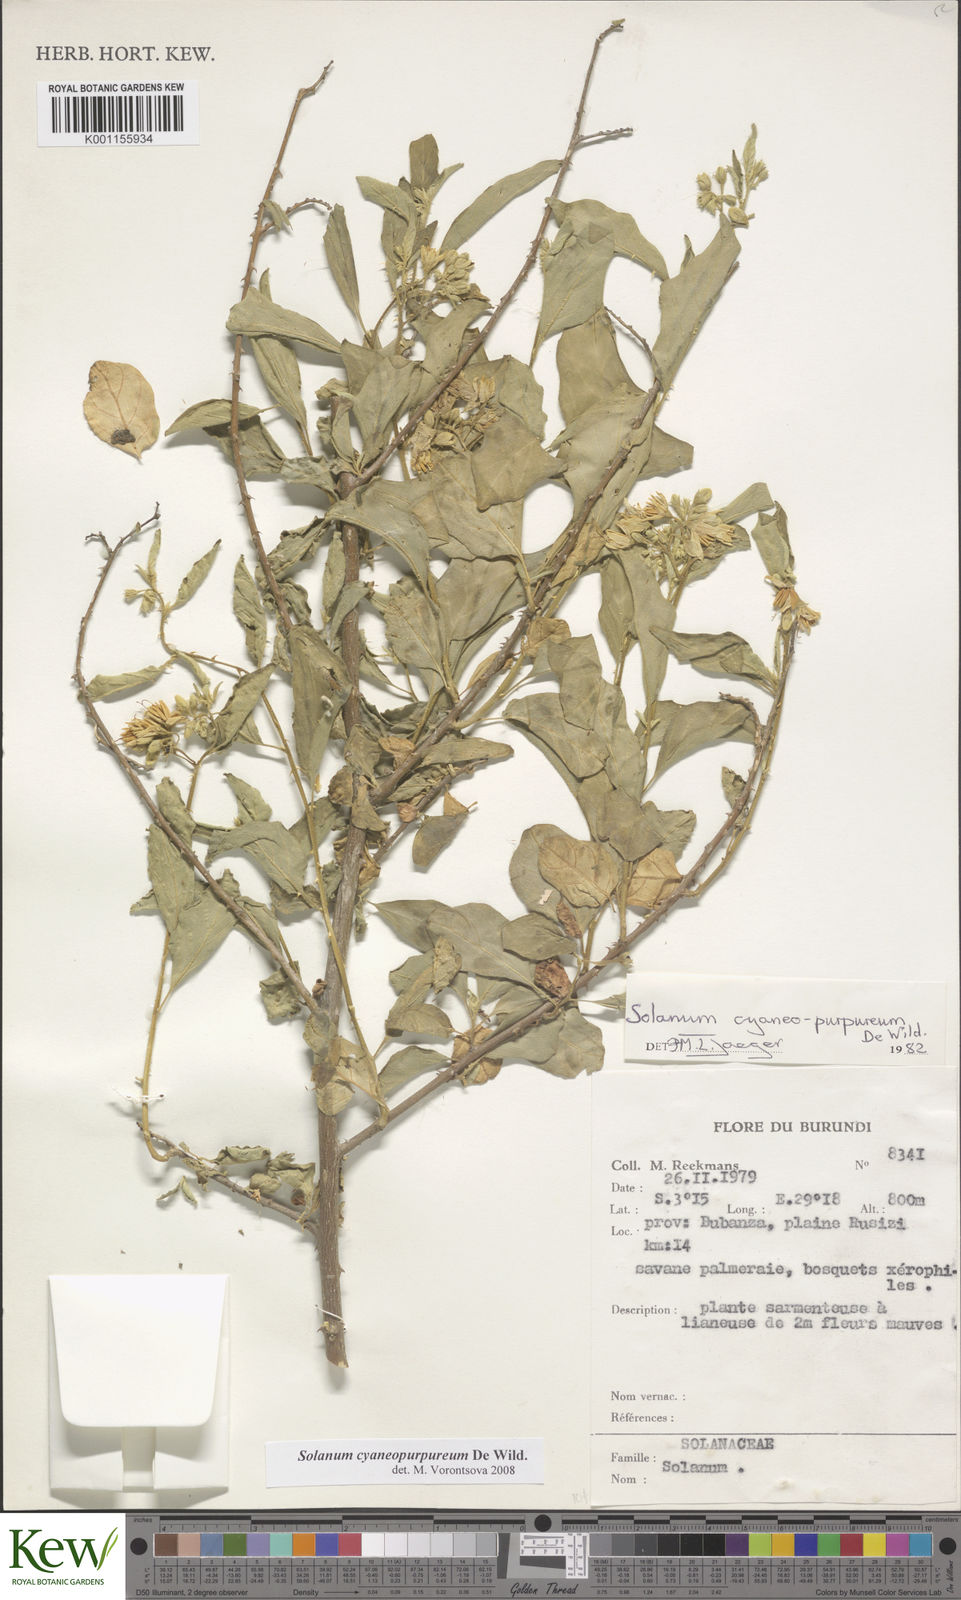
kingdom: Plantae
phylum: Tracheophyta
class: Magnoliopsida
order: Solanales
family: Solanaceae
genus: Solanum
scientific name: Solanum cyaneopurpureum
